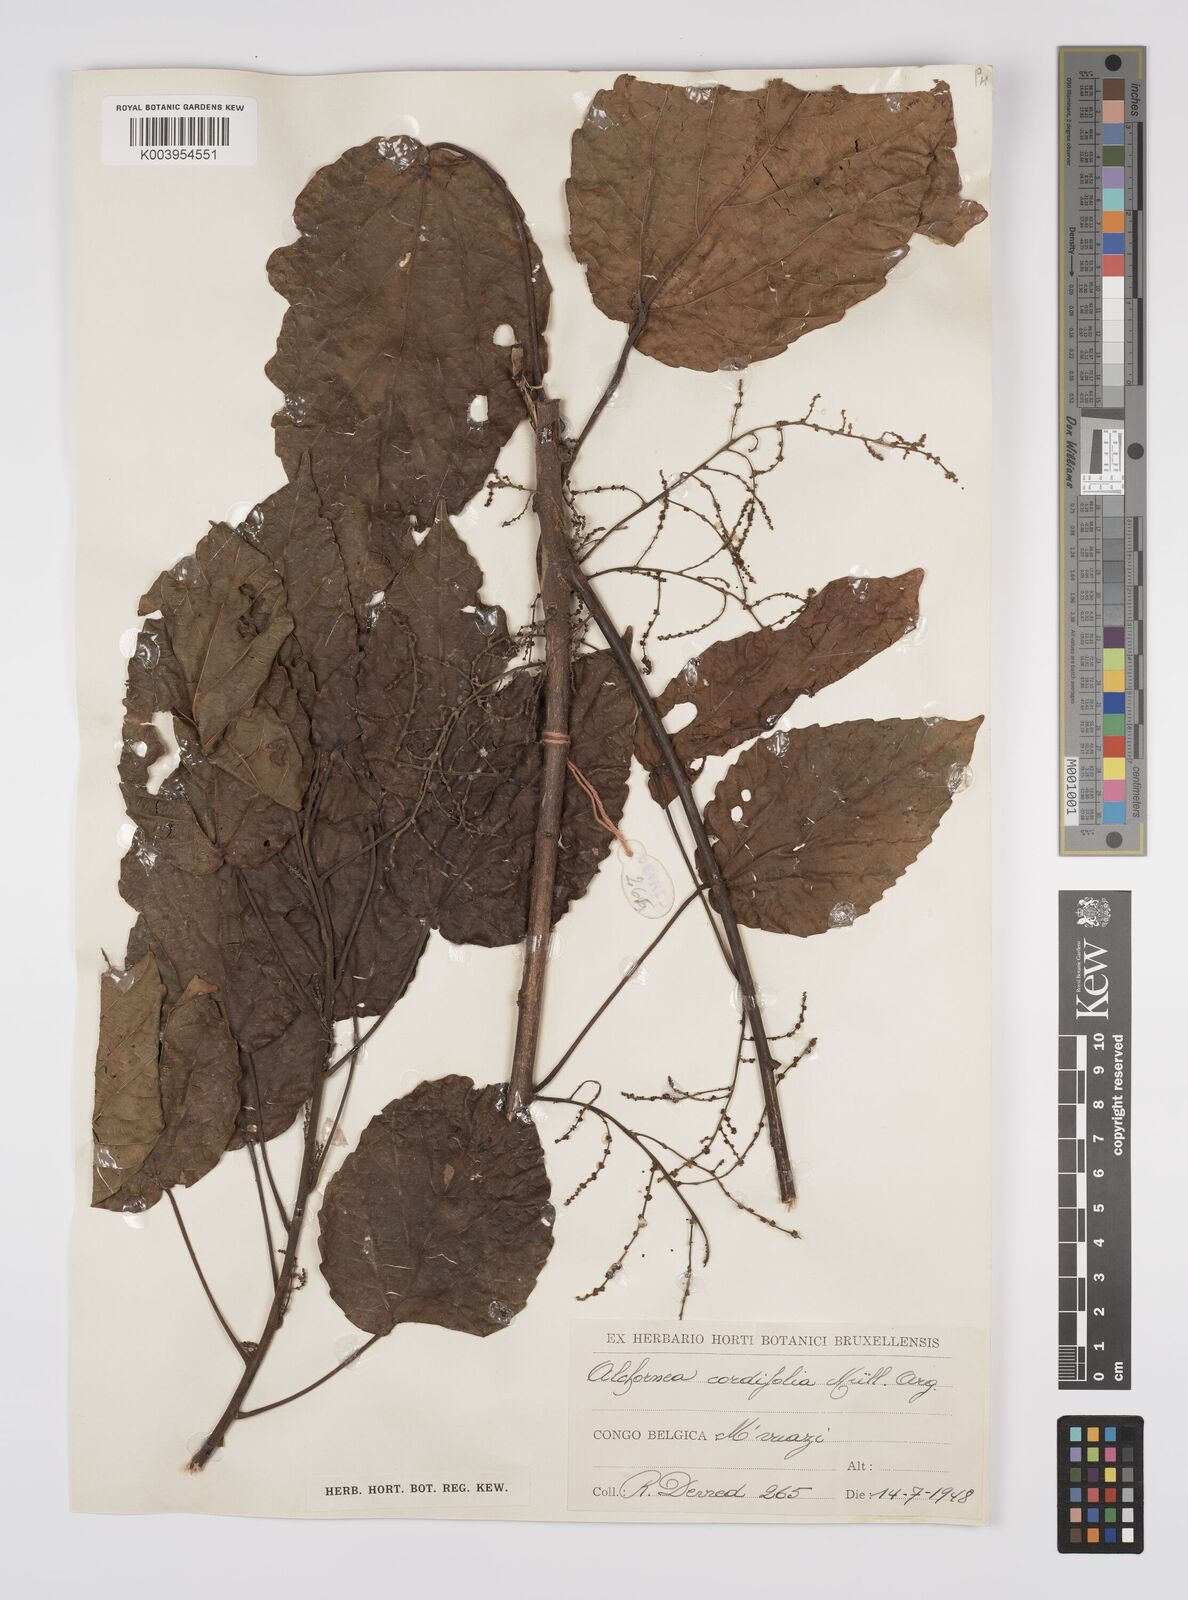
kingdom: Plantae
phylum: Tracheophyta
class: Magnoliopsida
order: Malpighiales
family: Euphorbiaceae
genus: Alchornea
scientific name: Alchornea cordifolia
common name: Christmasbush
